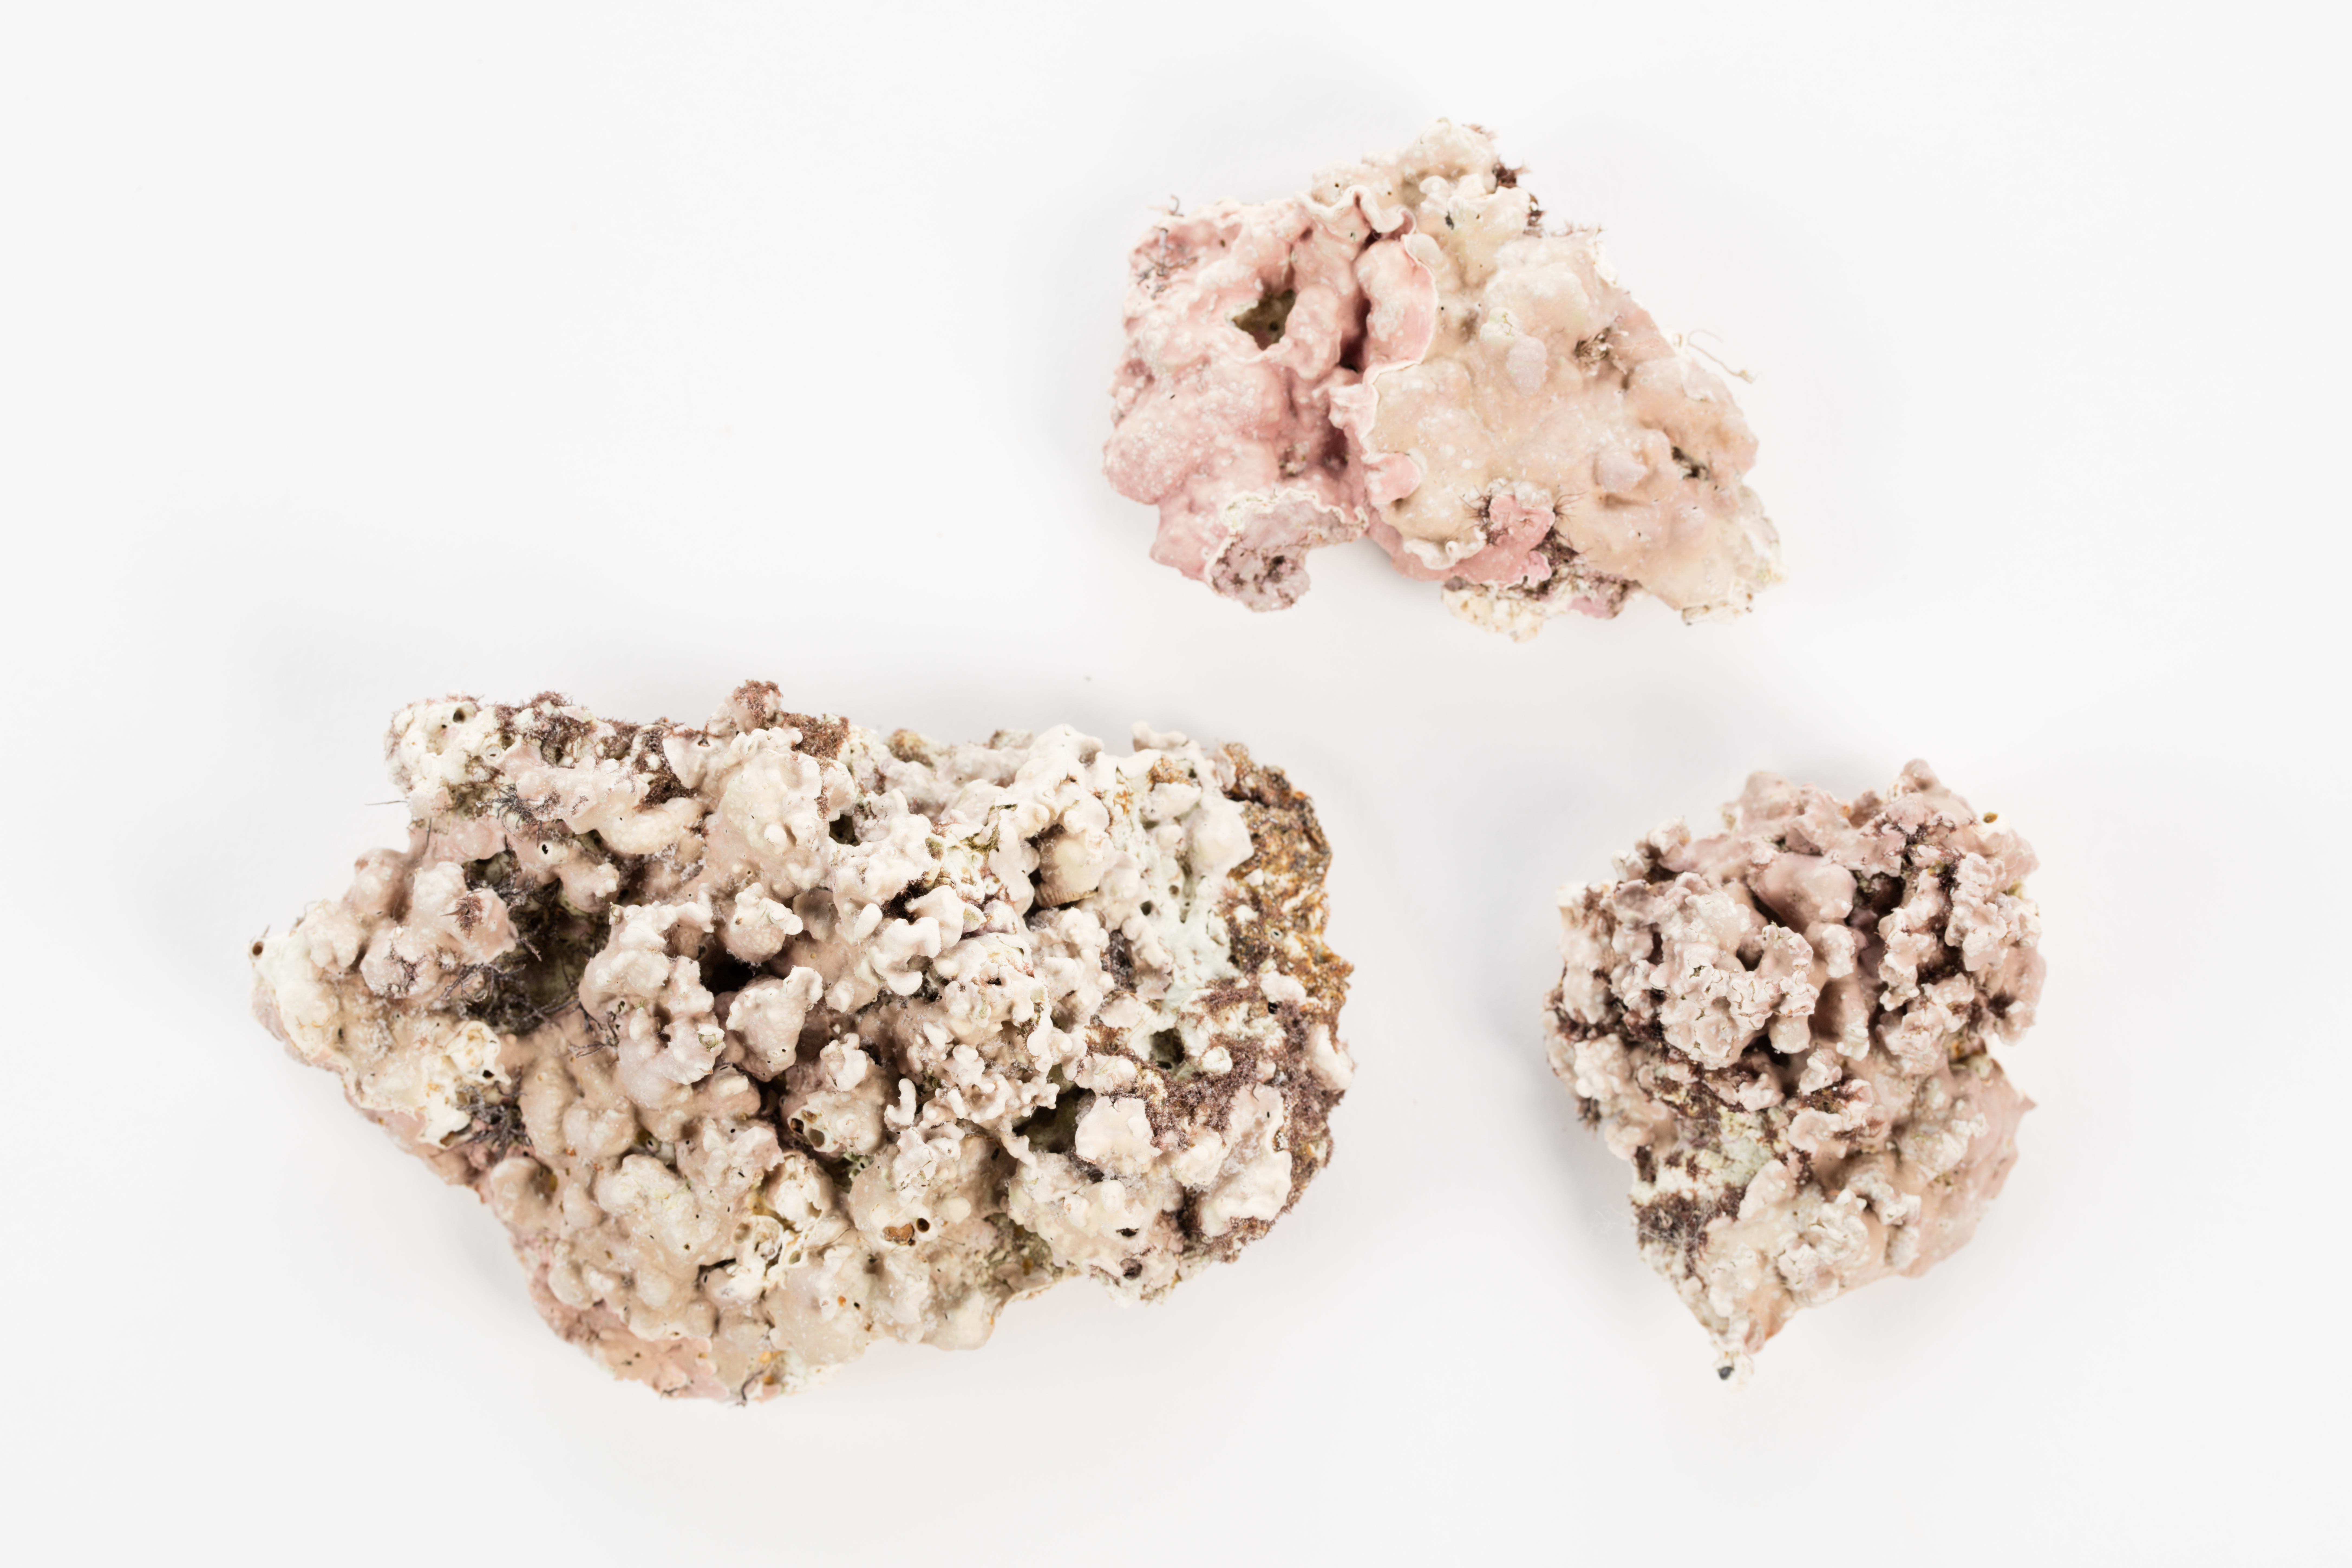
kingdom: Plantae
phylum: Rhodophyta
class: Florideophyceae
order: Corallinales
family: Corallinaceae
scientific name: Corallinaceae
